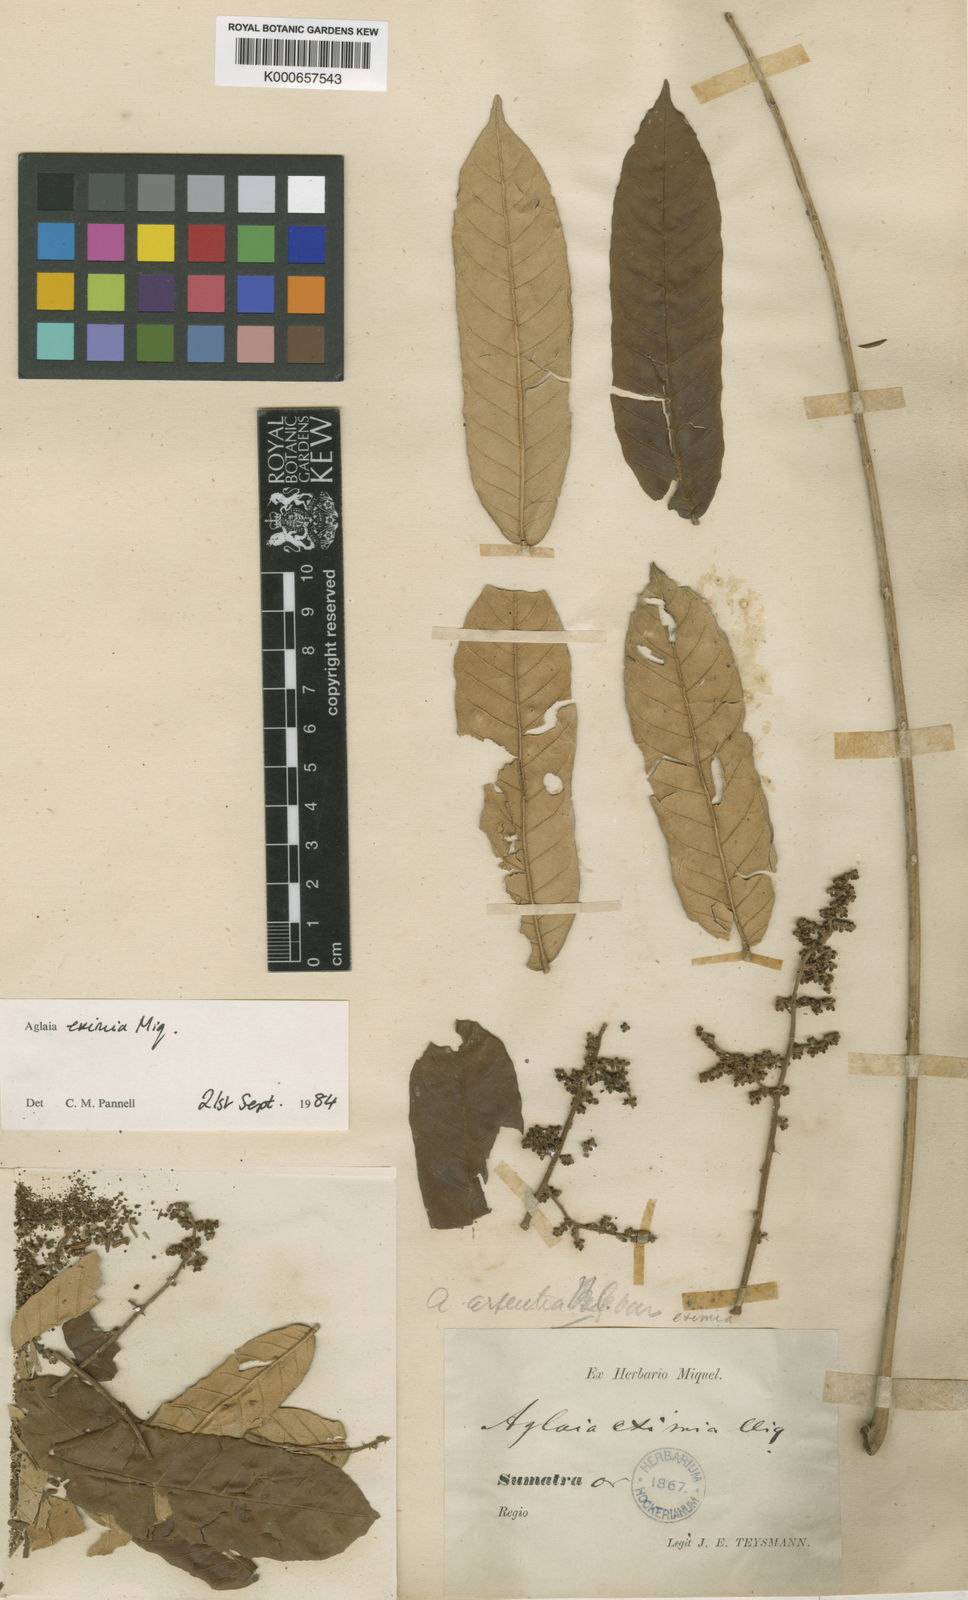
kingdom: Plantae
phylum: Tracheophyta
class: Magnoliopsida
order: Sapindales
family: Meliaceae
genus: Aglaia
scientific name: Aglaia eximia
